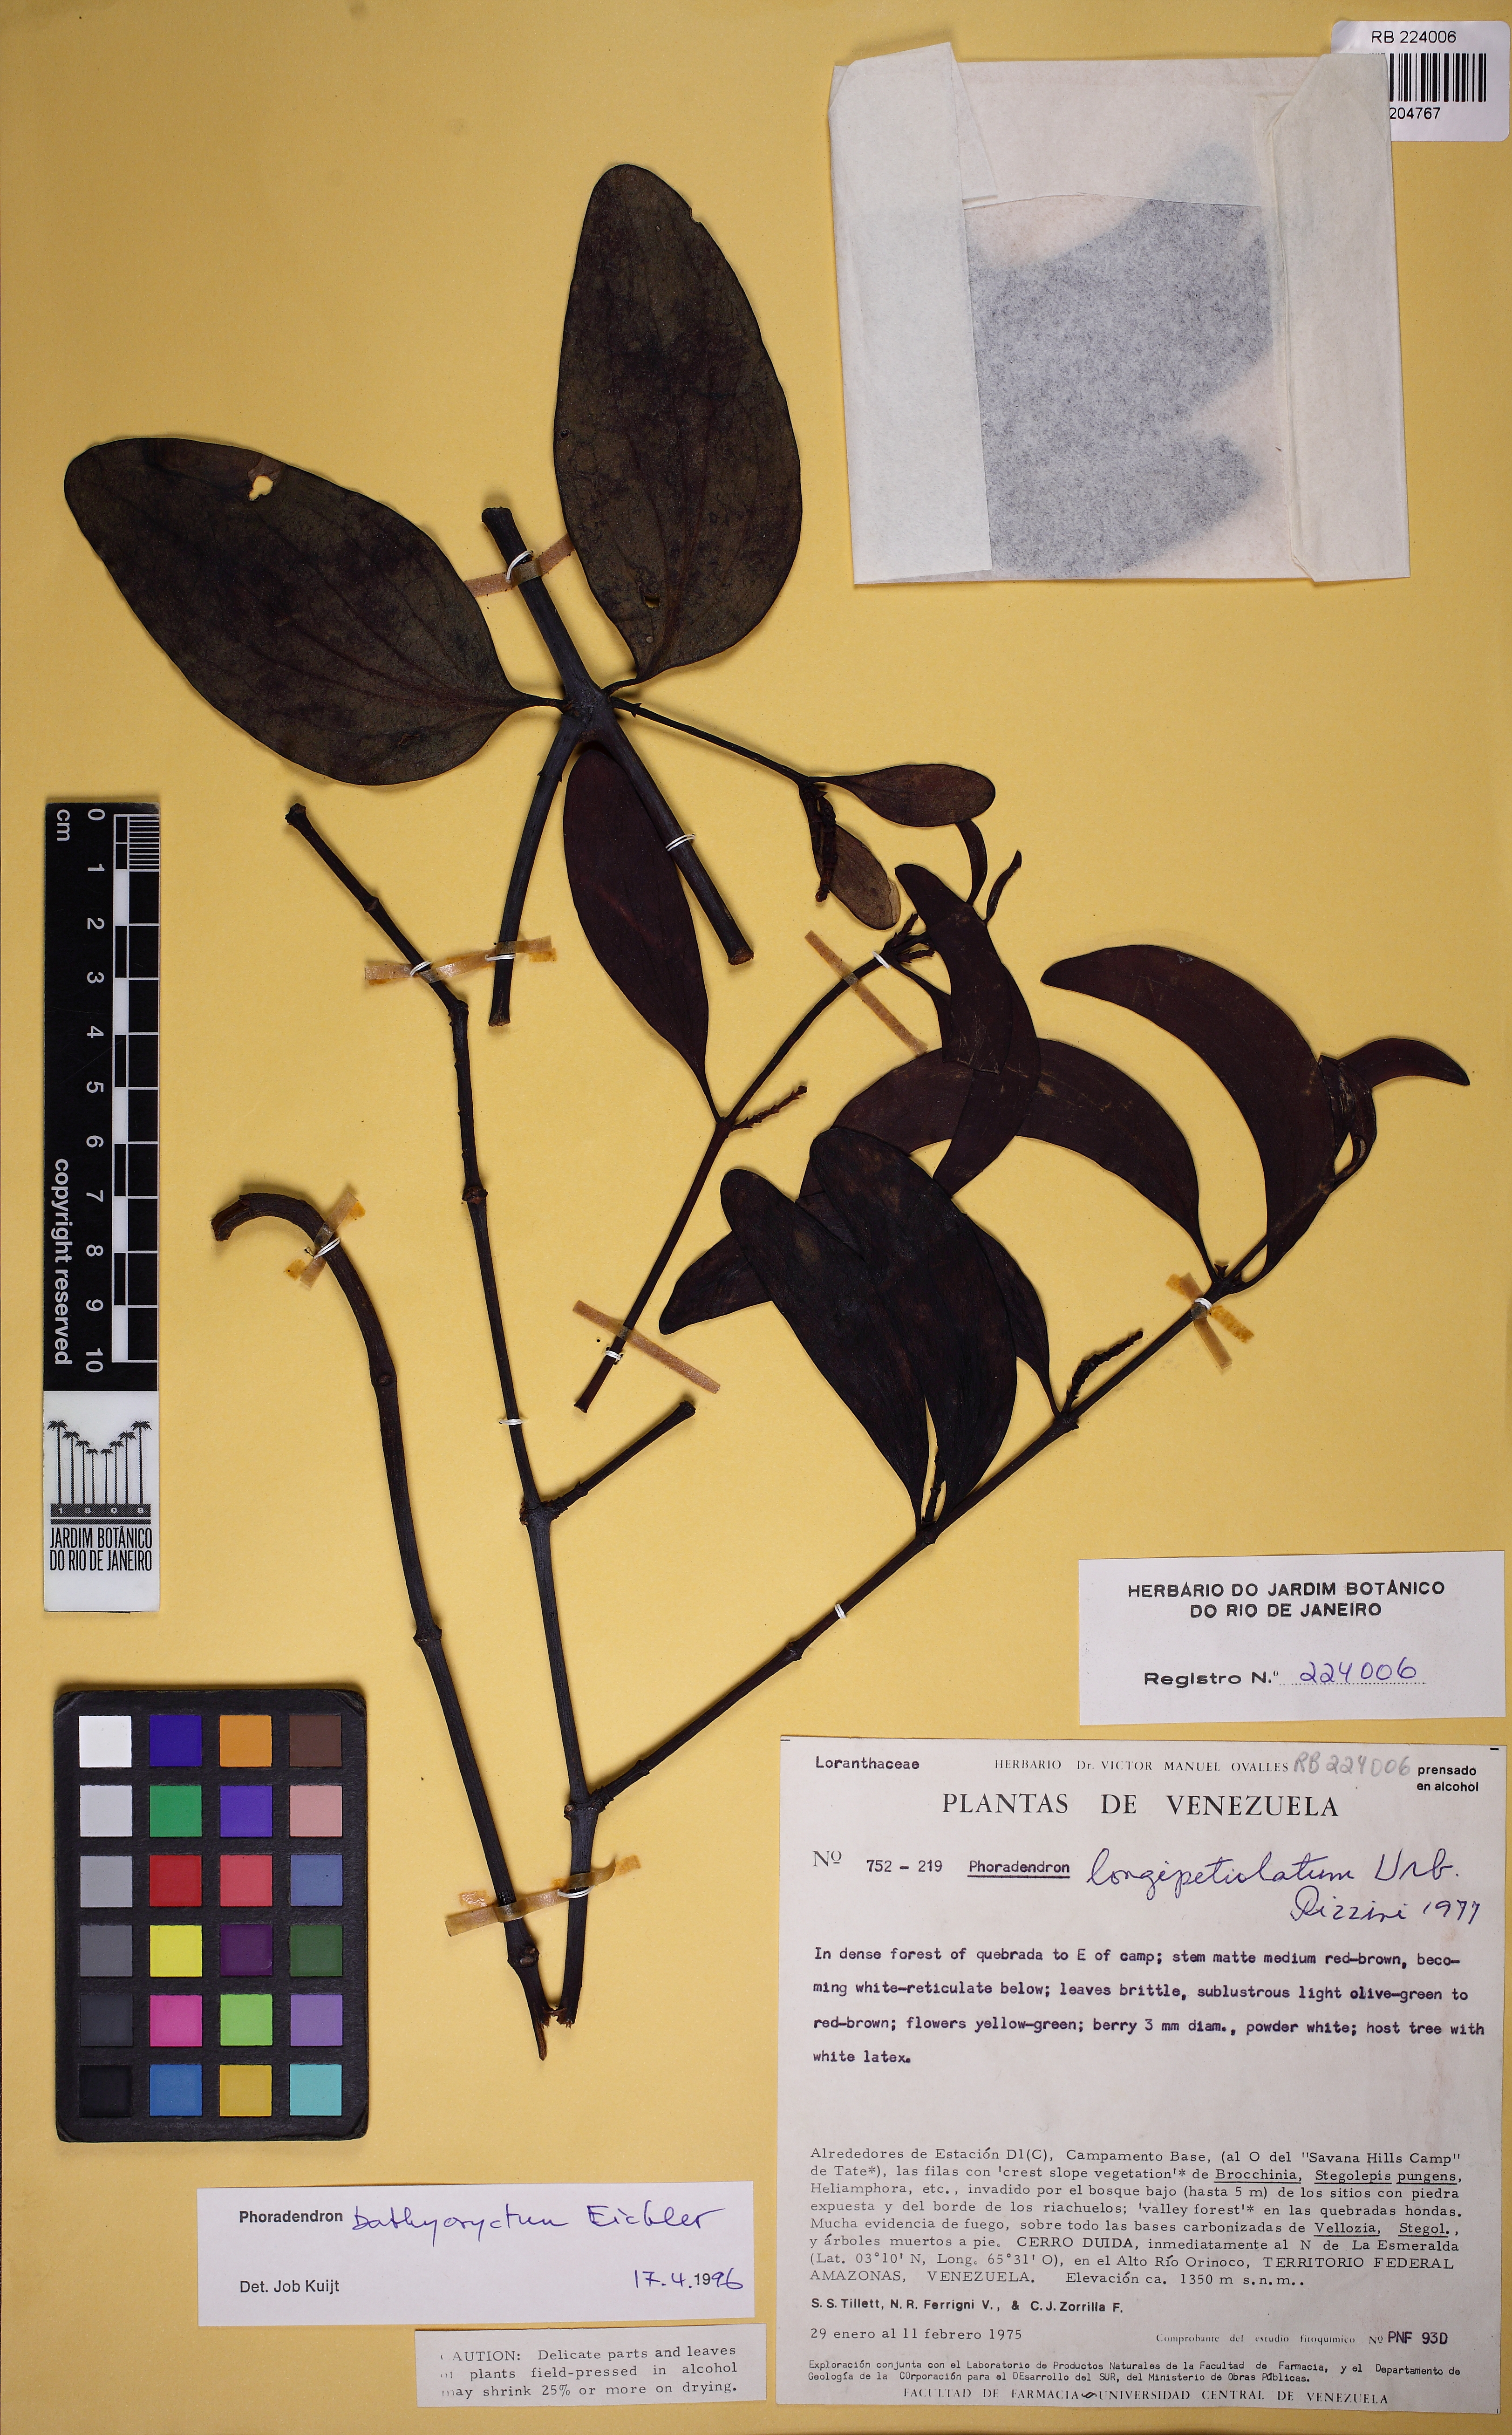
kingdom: Plantae
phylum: Tracheophyta
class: Magnoliopsida
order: Santalales
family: Viscaceae
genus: Phoradendron
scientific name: Phoradendron
